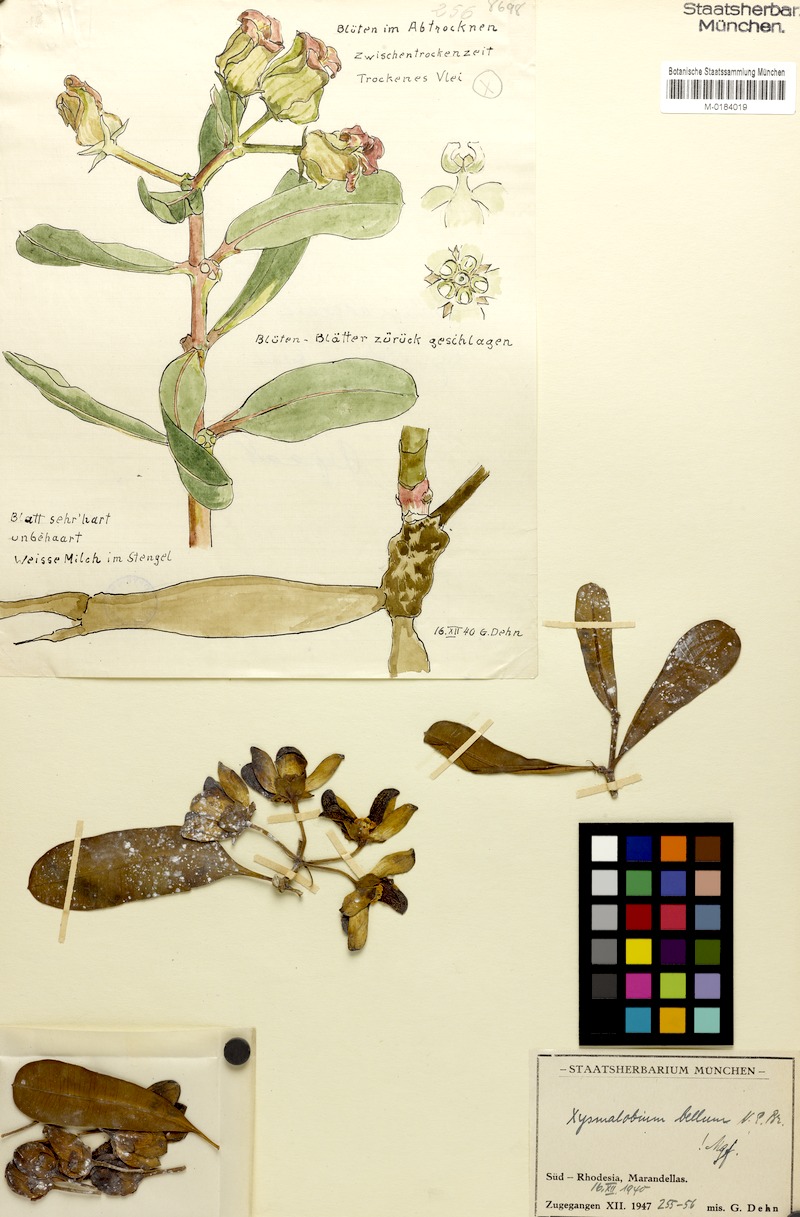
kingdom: Plantae
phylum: Tracheophyta
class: Magnoliopsida
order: Gentianales
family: Apocynaceae
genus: Glossostelma
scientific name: Glossostelma spathulatum
